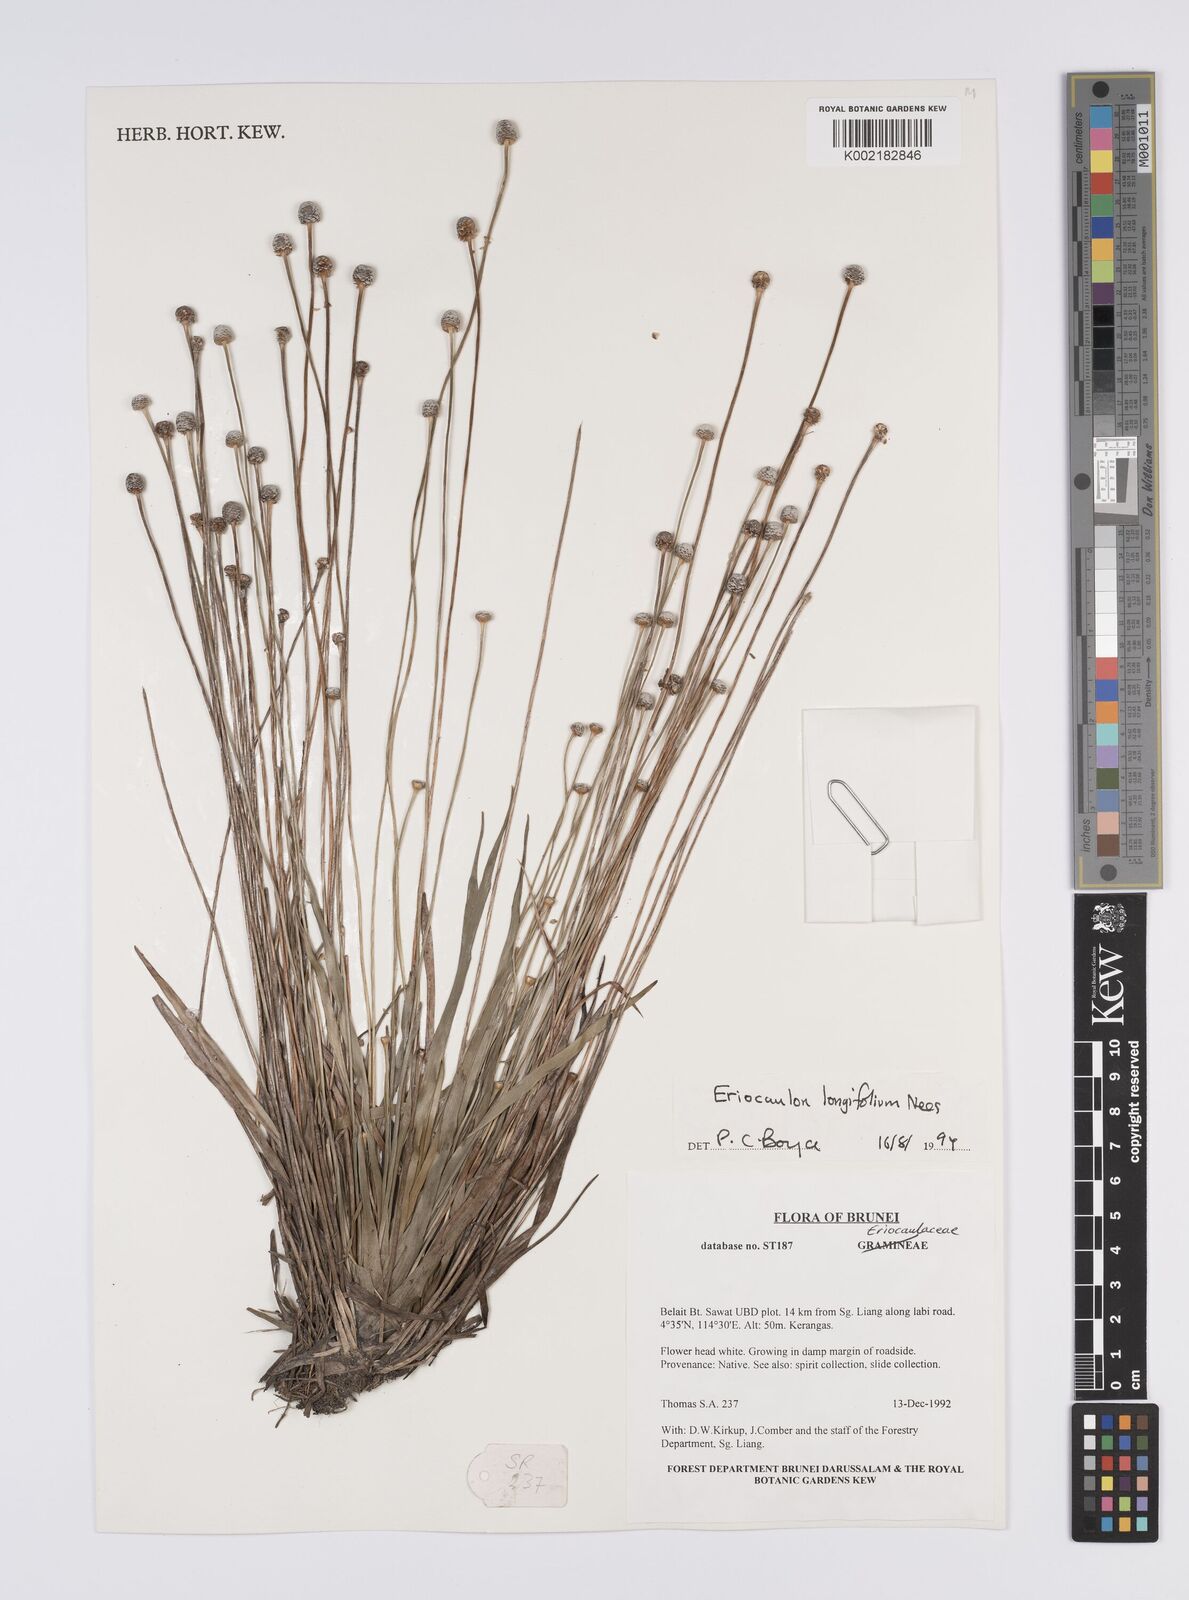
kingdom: Plantae
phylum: Tracheophyta
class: Liliopsida
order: Poales
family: Eriocaulaceae
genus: Eriocaulon
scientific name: Eriocaulon willdenovianum
